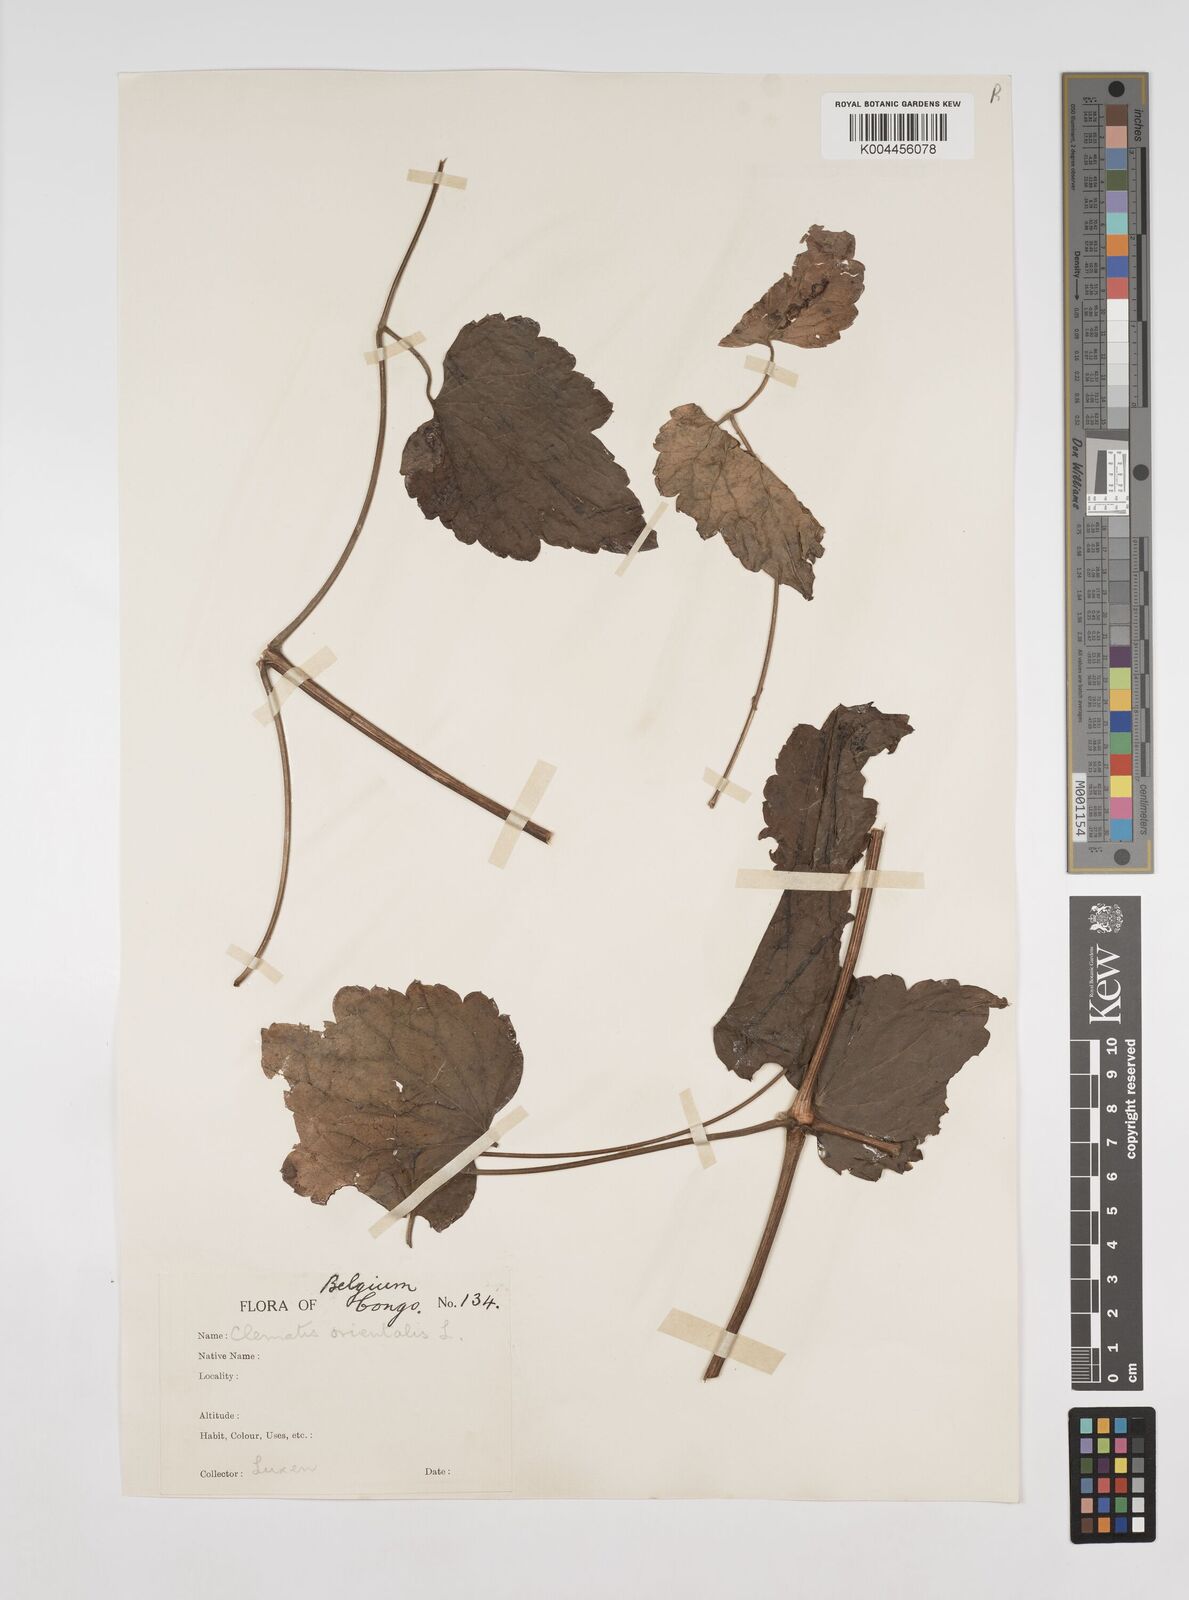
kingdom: Plantae
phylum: Tracheophyta
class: Magnoliopsida
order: Ranunculales
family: Ranunculaceae
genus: Clematis
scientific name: Clematis
